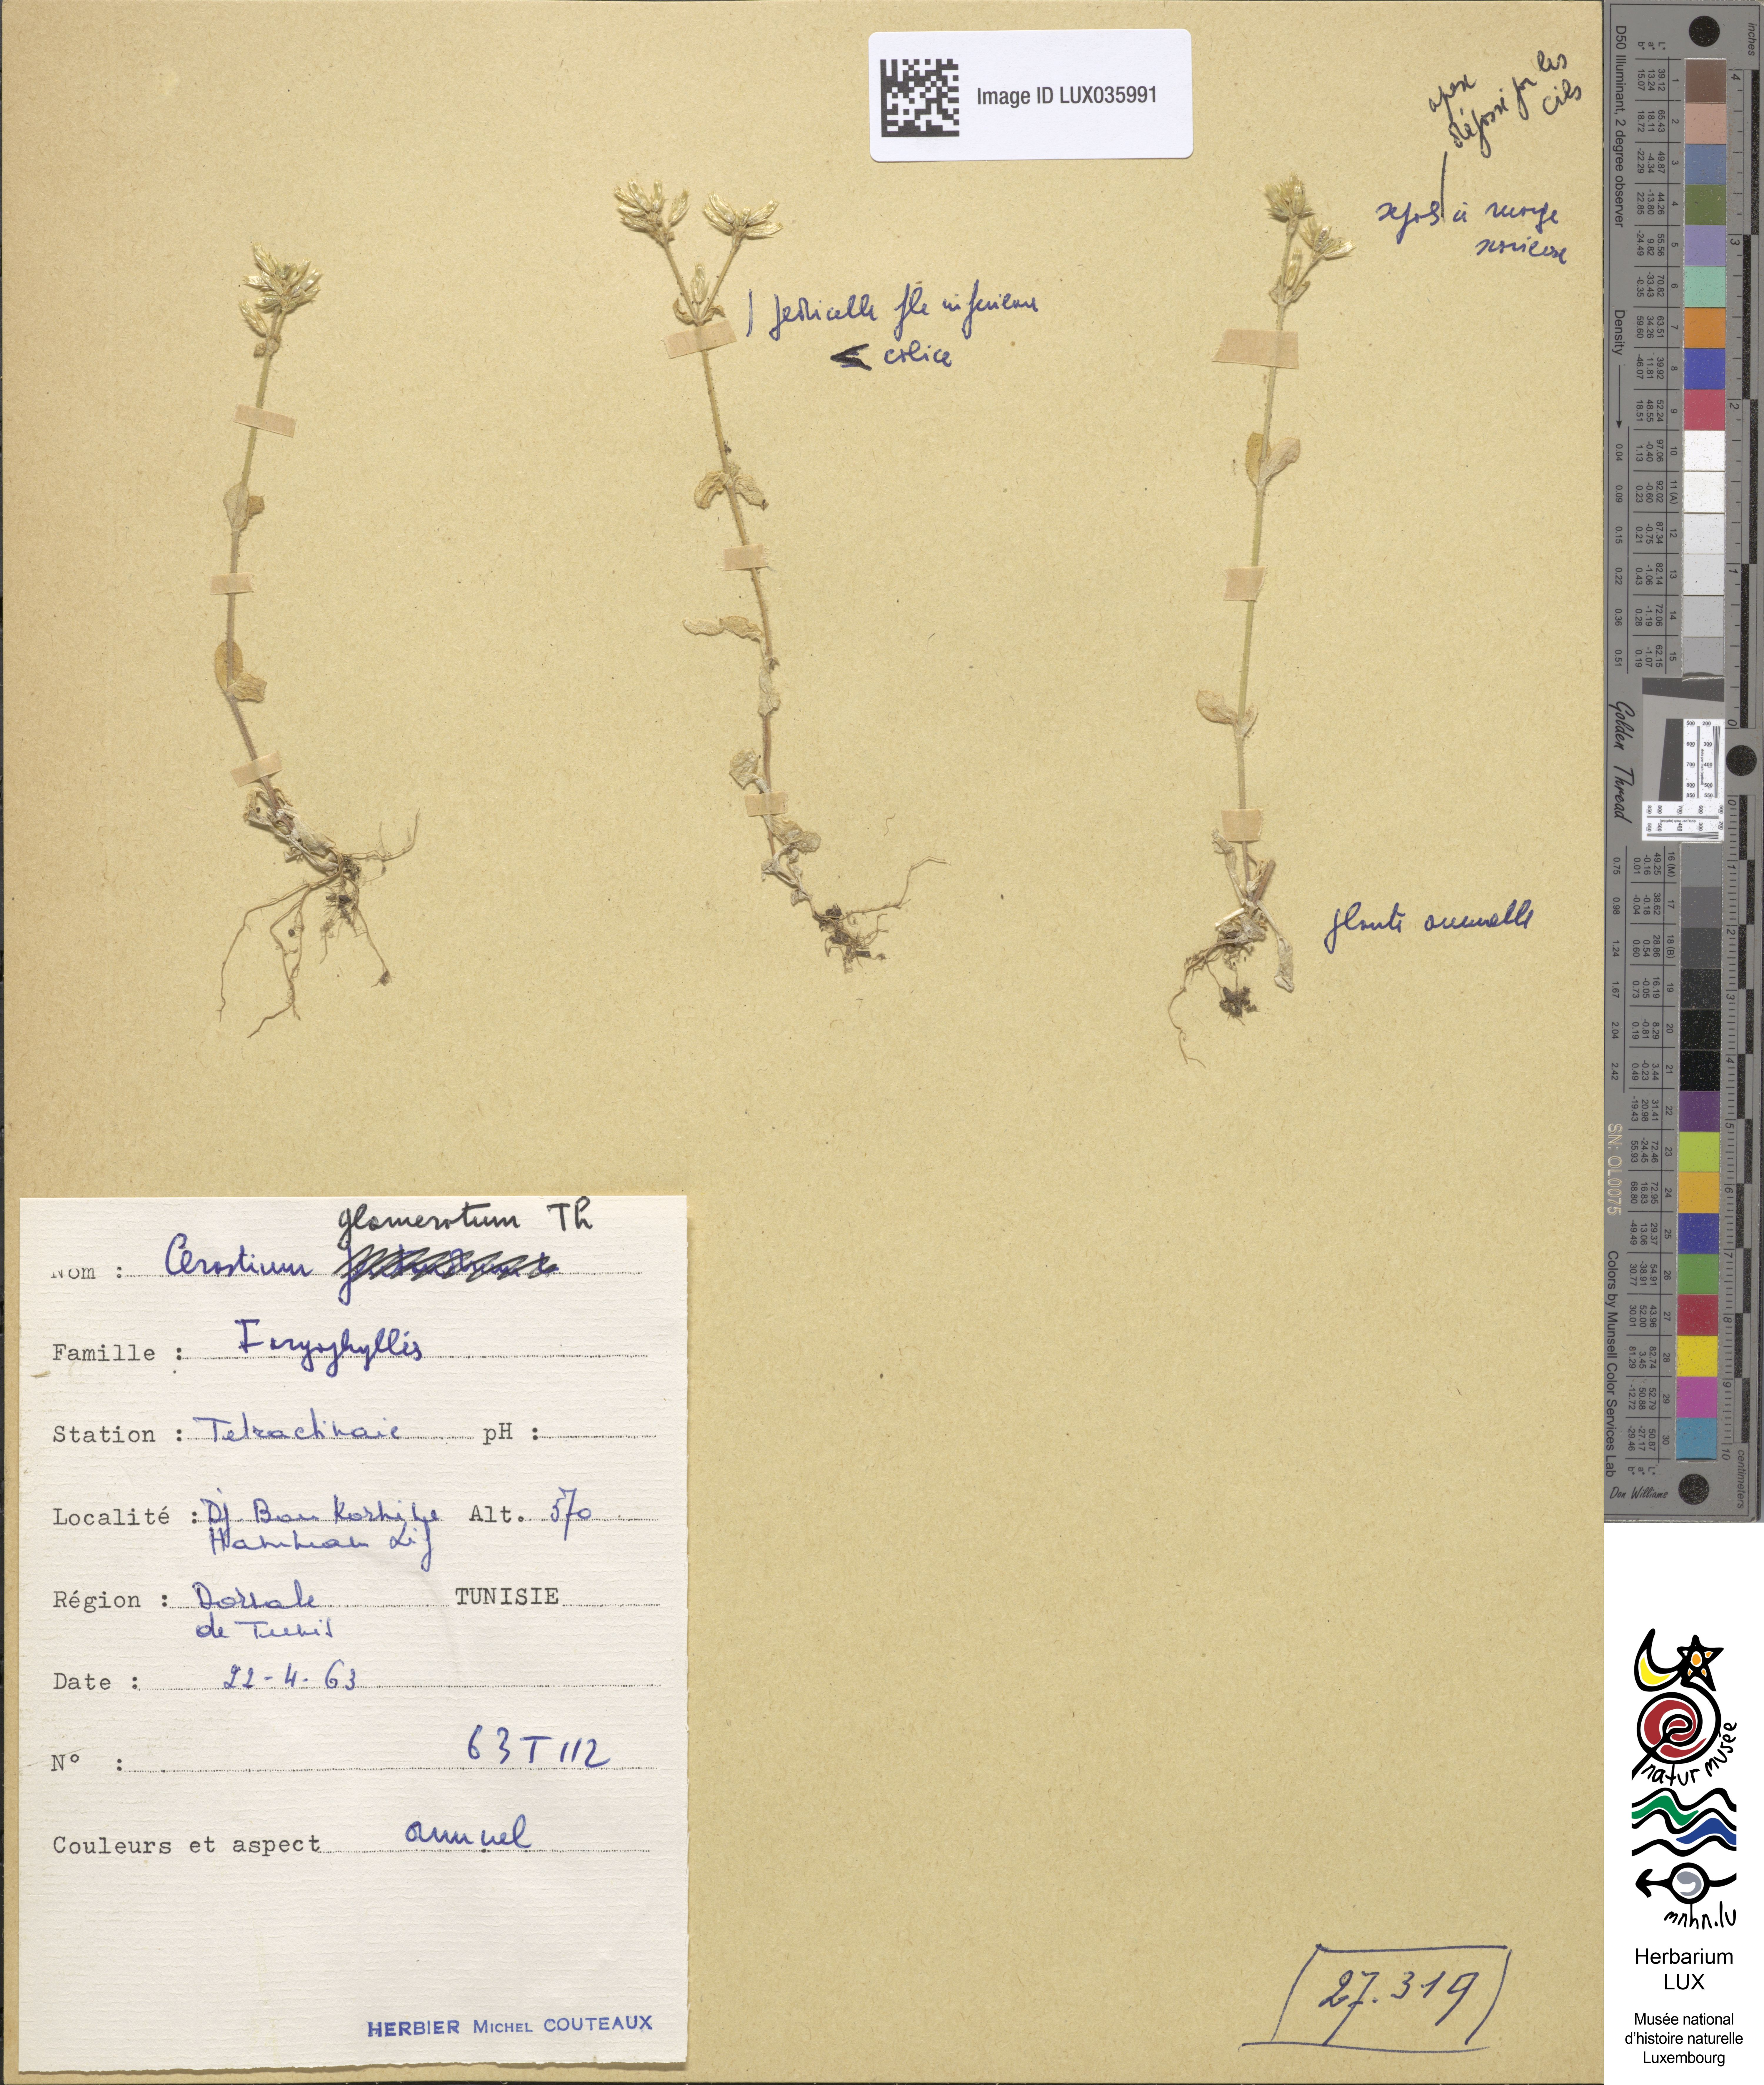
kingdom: Plantae
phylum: Tracheophyta
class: Magnoliopsida
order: Caryophyllales
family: Caryophyllaceae
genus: Cerastium
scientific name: Cerastium glomeratum
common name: Sticky chickweed
